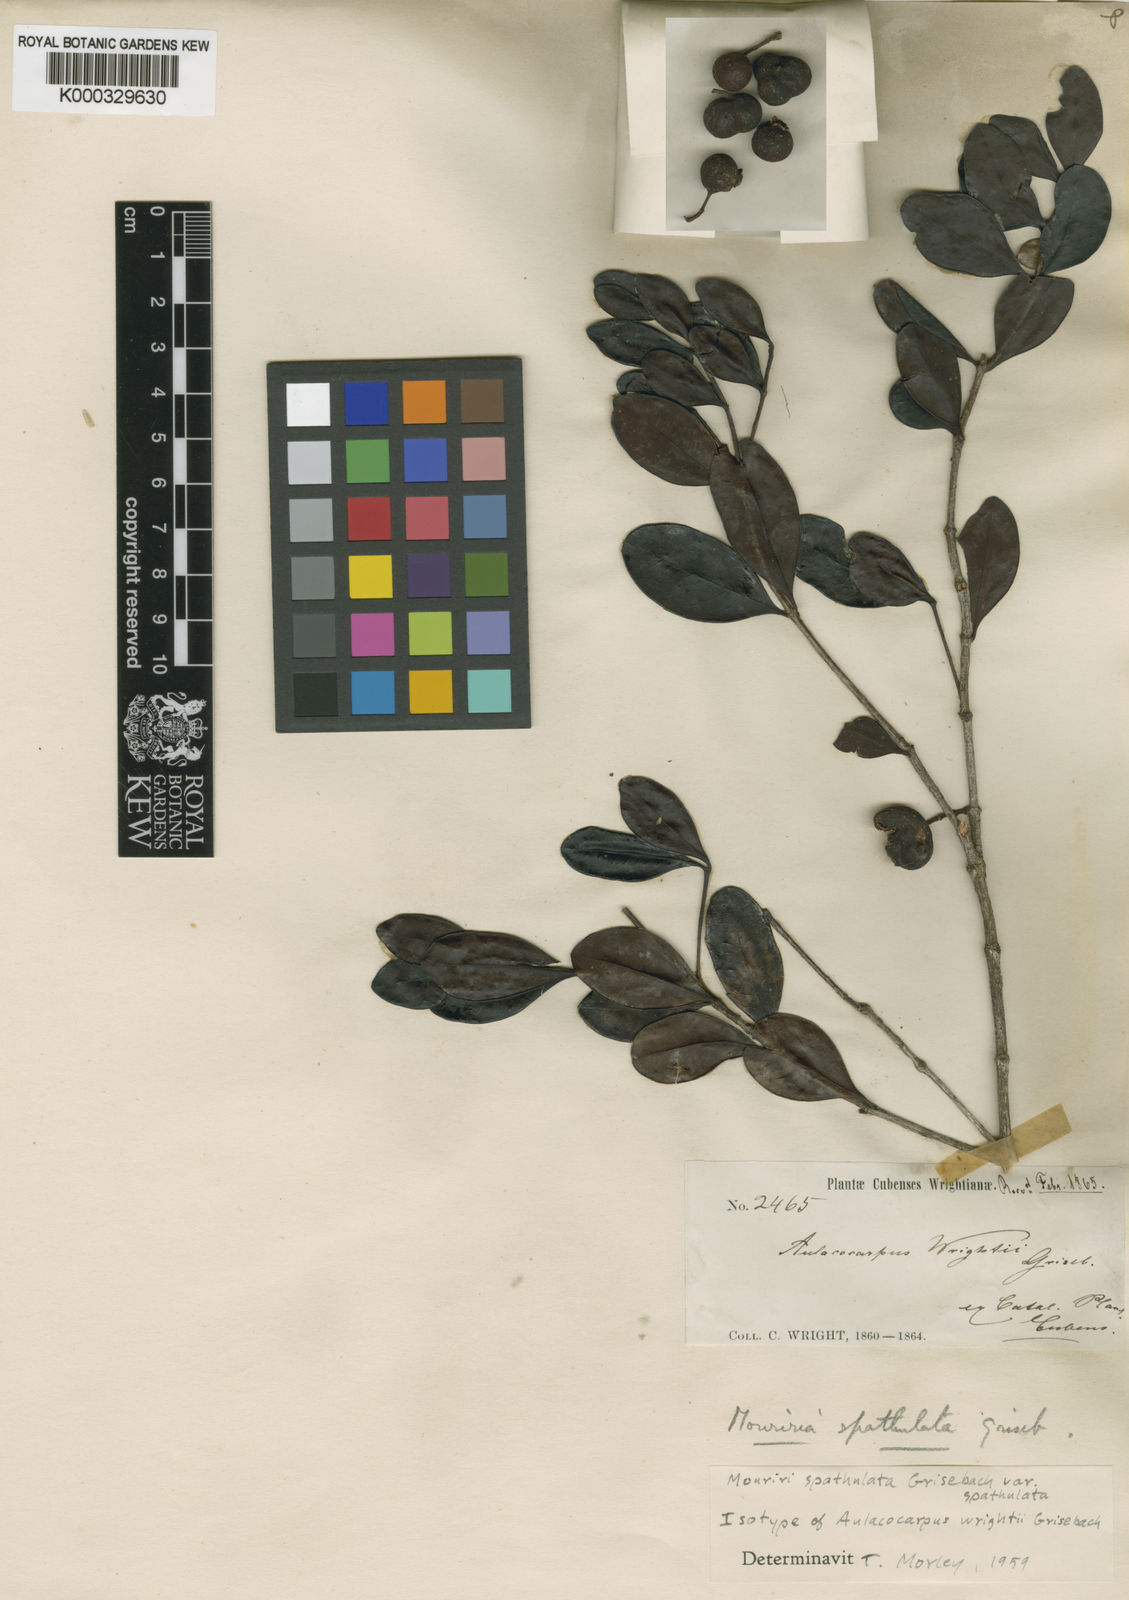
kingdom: Plantae
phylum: Tracheophyta
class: Magnoliopsida
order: Myrtales
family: Melastomataceae
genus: Mouriri
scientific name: Mouriri spathulata
